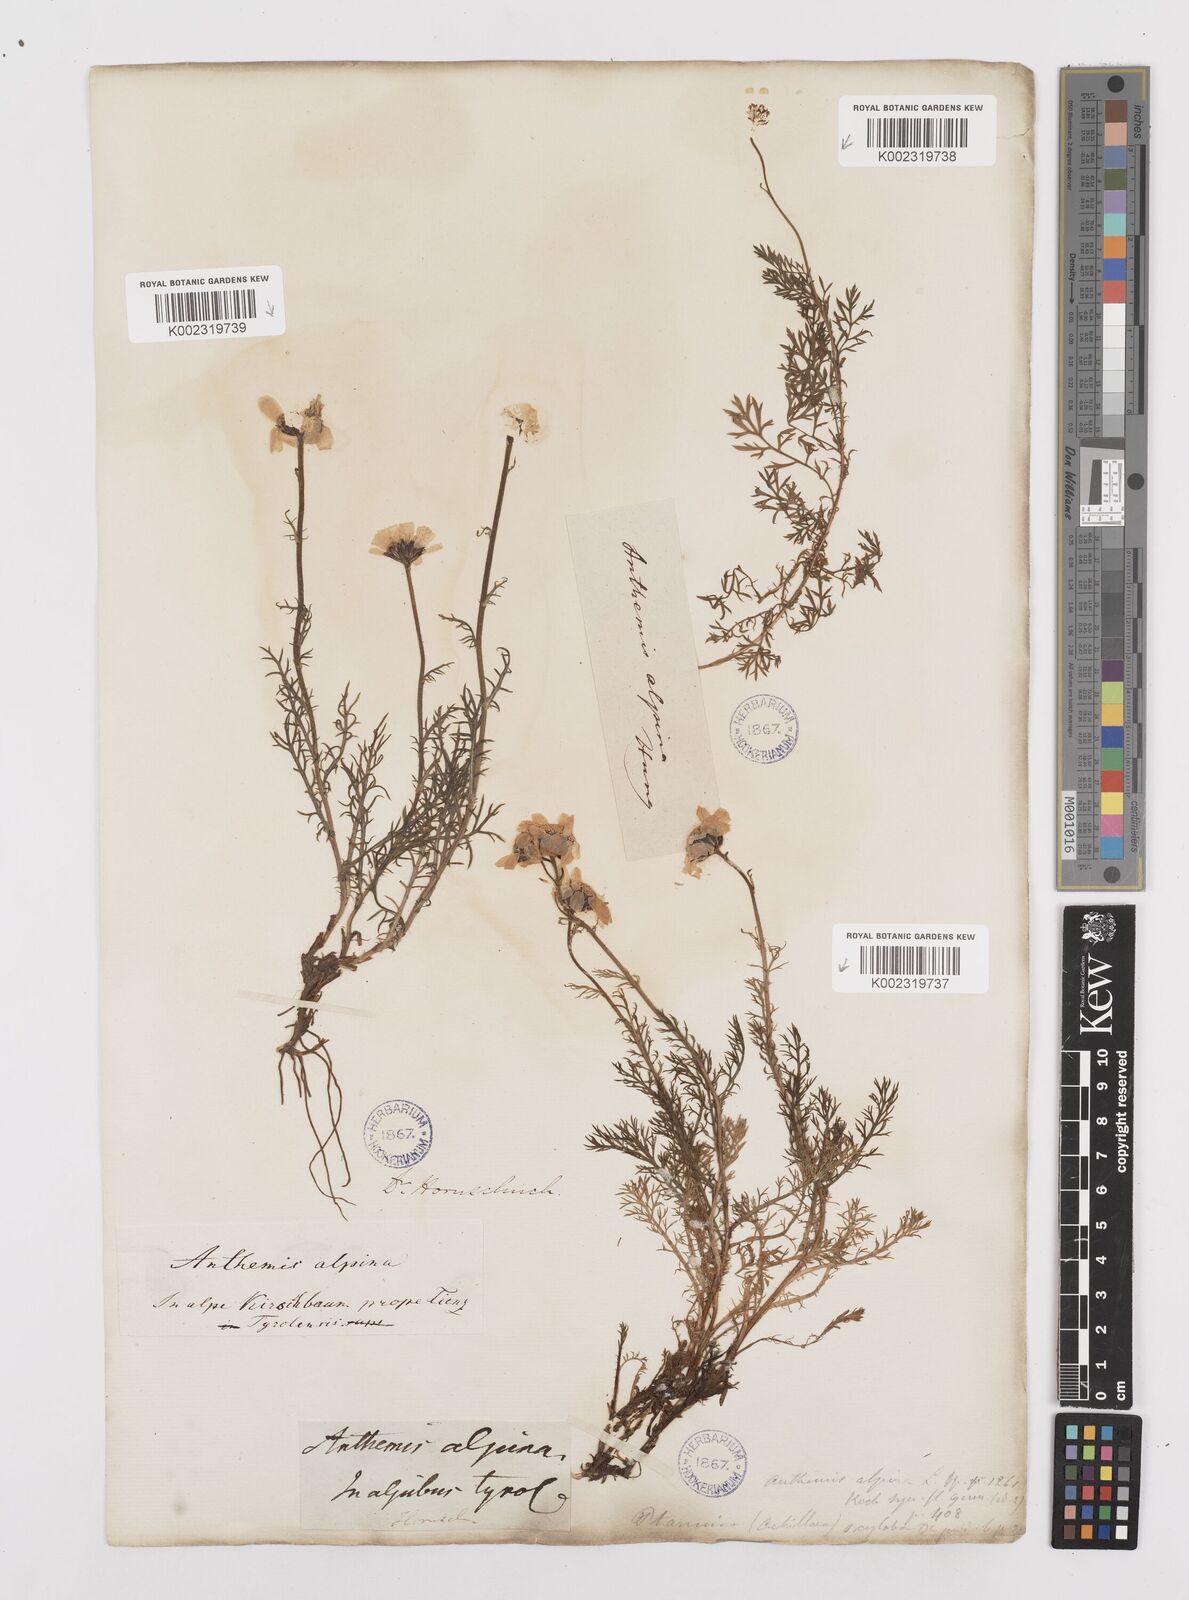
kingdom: Plantae
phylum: Tracheophyta
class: Magnoliopsida
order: Asterales
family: Asteraceae
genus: Achillea
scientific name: Achillea oxyloba
